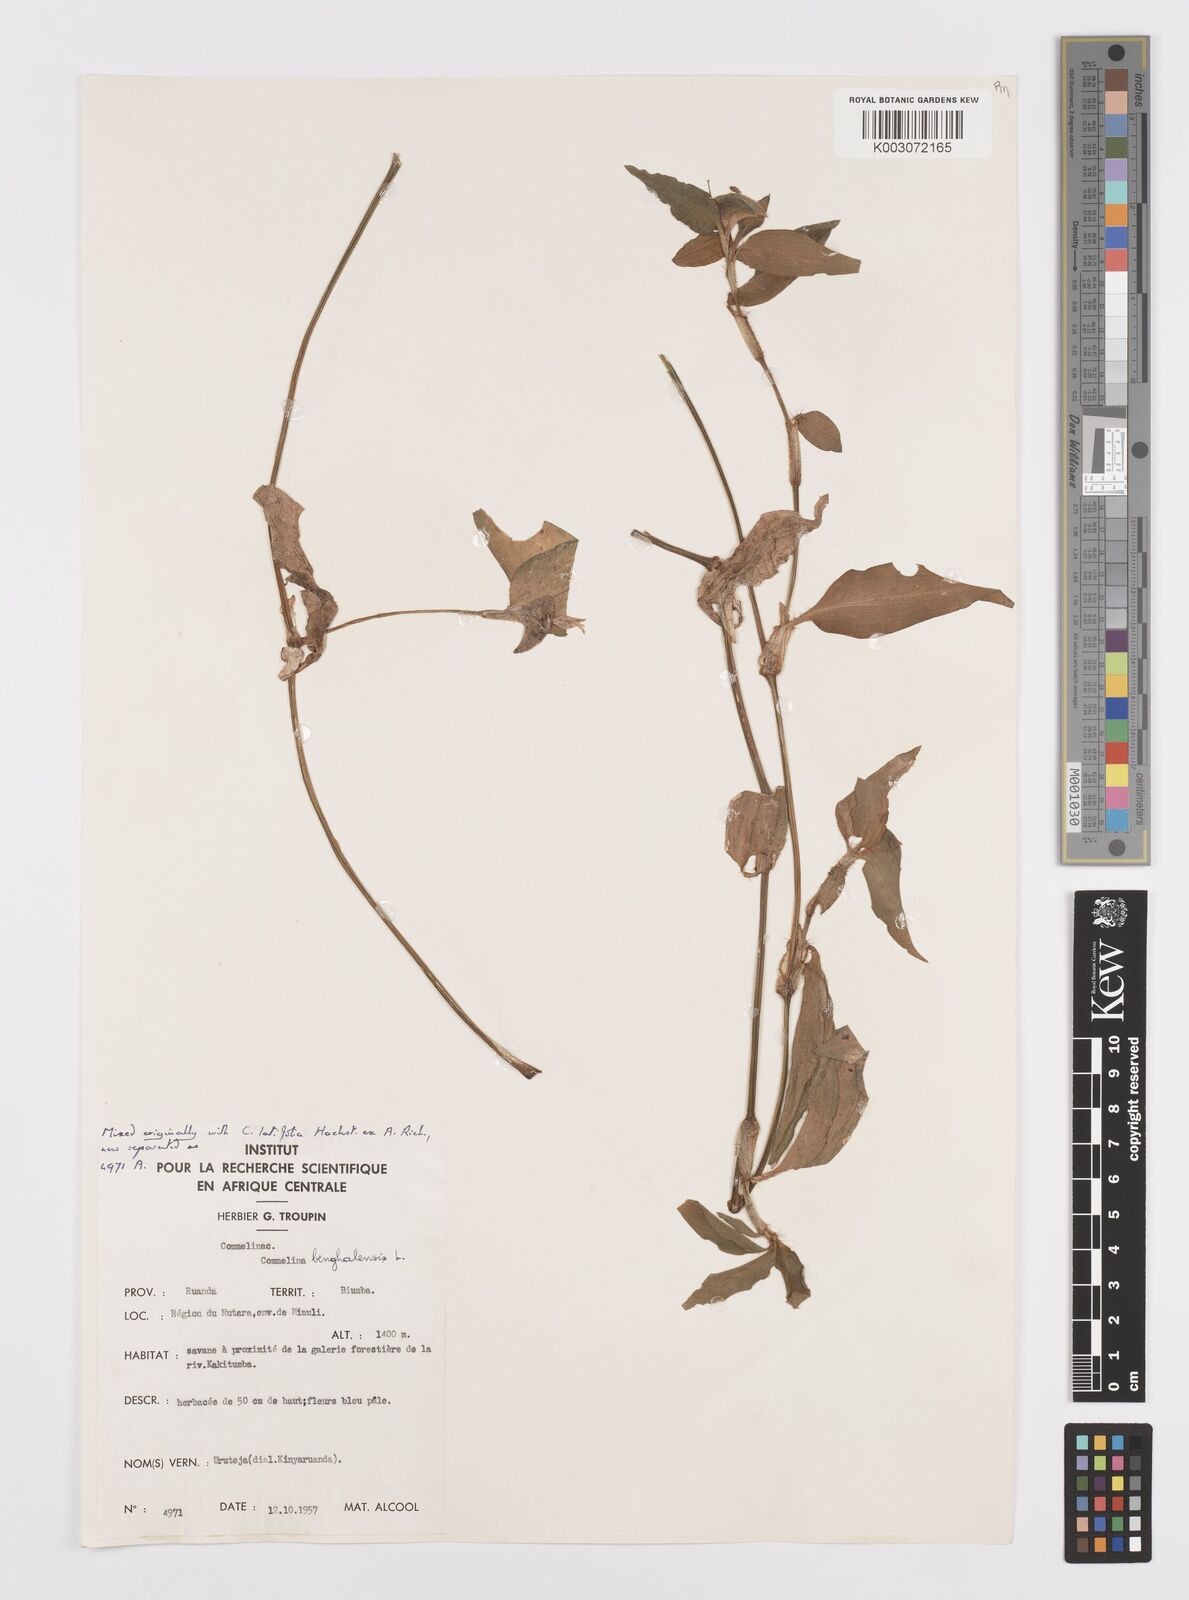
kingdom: Plantae
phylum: Tracheophyta
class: Liliopsida
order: Commelinales
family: Commelinaceae
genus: Commelina
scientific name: Commelina benghalensis
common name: Jio
